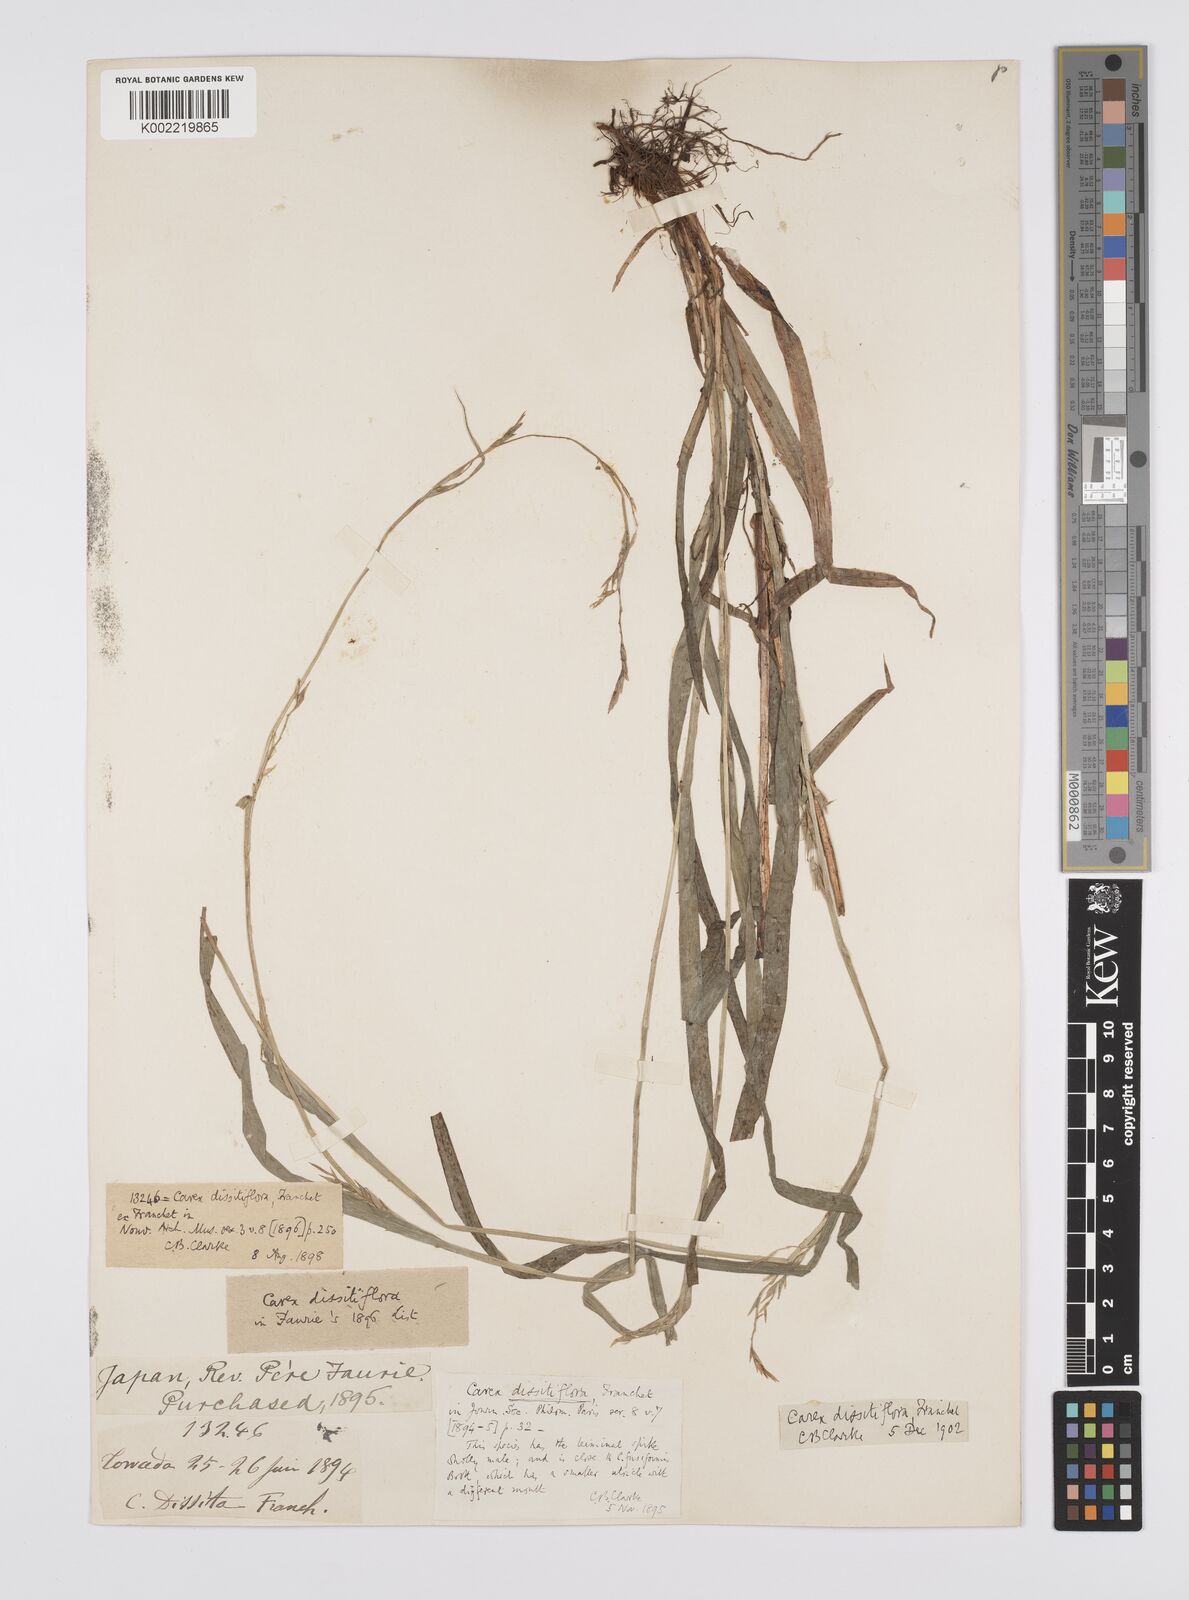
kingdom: Plantae
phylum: Tracheophyta
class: Liliopsida
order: Poales
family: Cyperaceae
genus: Carex
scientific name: Carex dissitiflora
